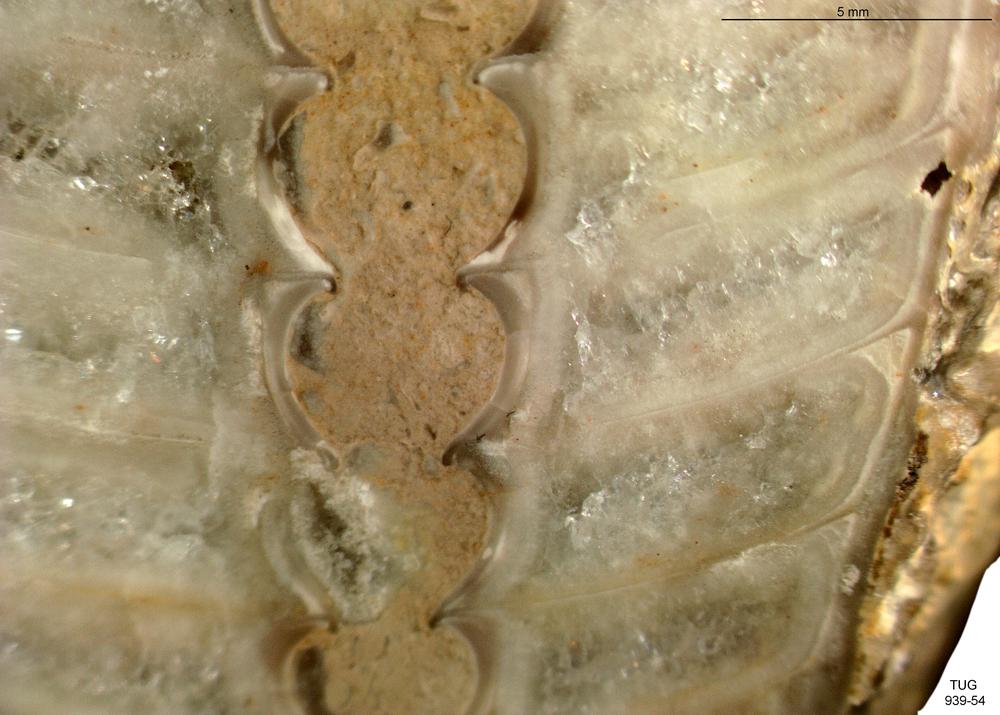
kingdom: Animalia
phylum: Mollusca
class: Cephalopoda
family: Oncoceratidae
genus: Beloitoceras
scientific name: Beloitoceras cautis
